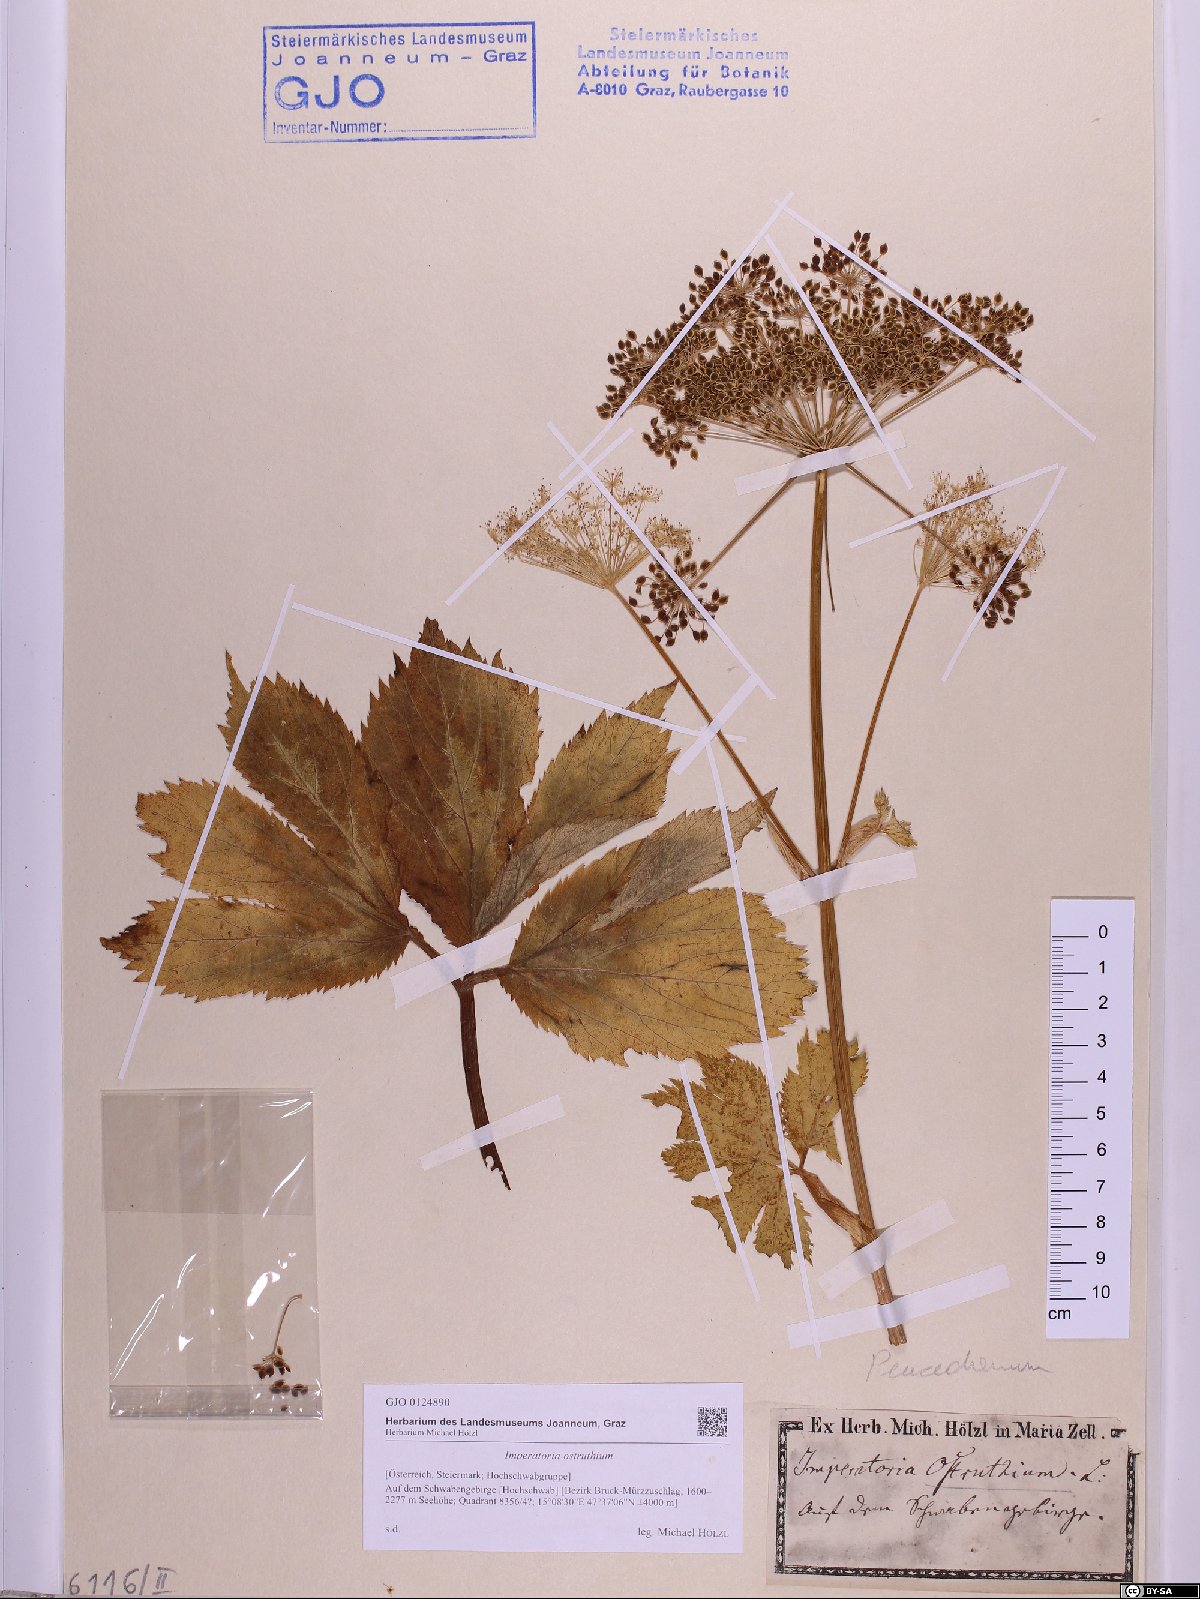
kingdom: Plantae
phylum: Tracheophyta
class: Magnoliopsida
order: Apiales
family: Apiaceae
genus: Imperatoria
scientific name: Imperatoria ostruthium
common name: Masterwort
